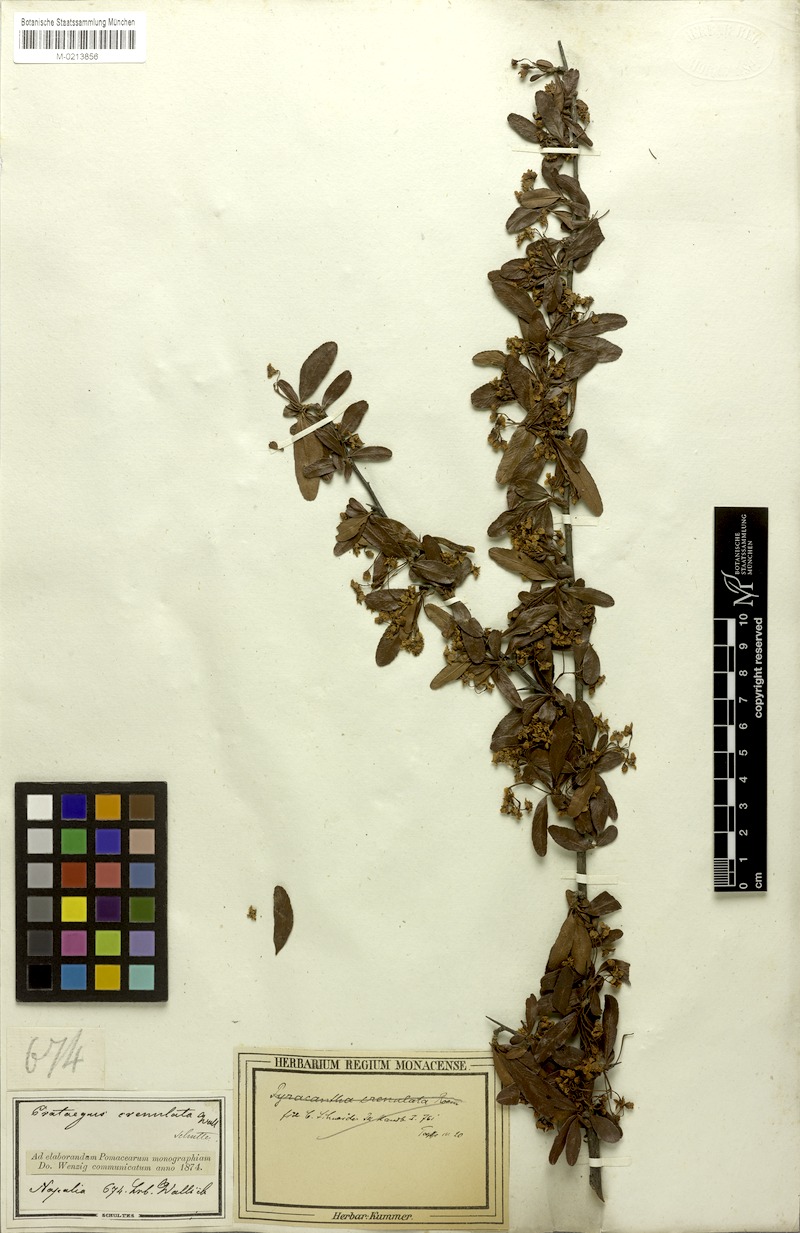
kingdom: Plantae
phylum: Tracheophyta
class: Magnoliopsida
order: Rosales
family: Rosaceae
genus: Pyracantha
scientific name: Pyracantha crenulata
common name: Nepalese firethorn
